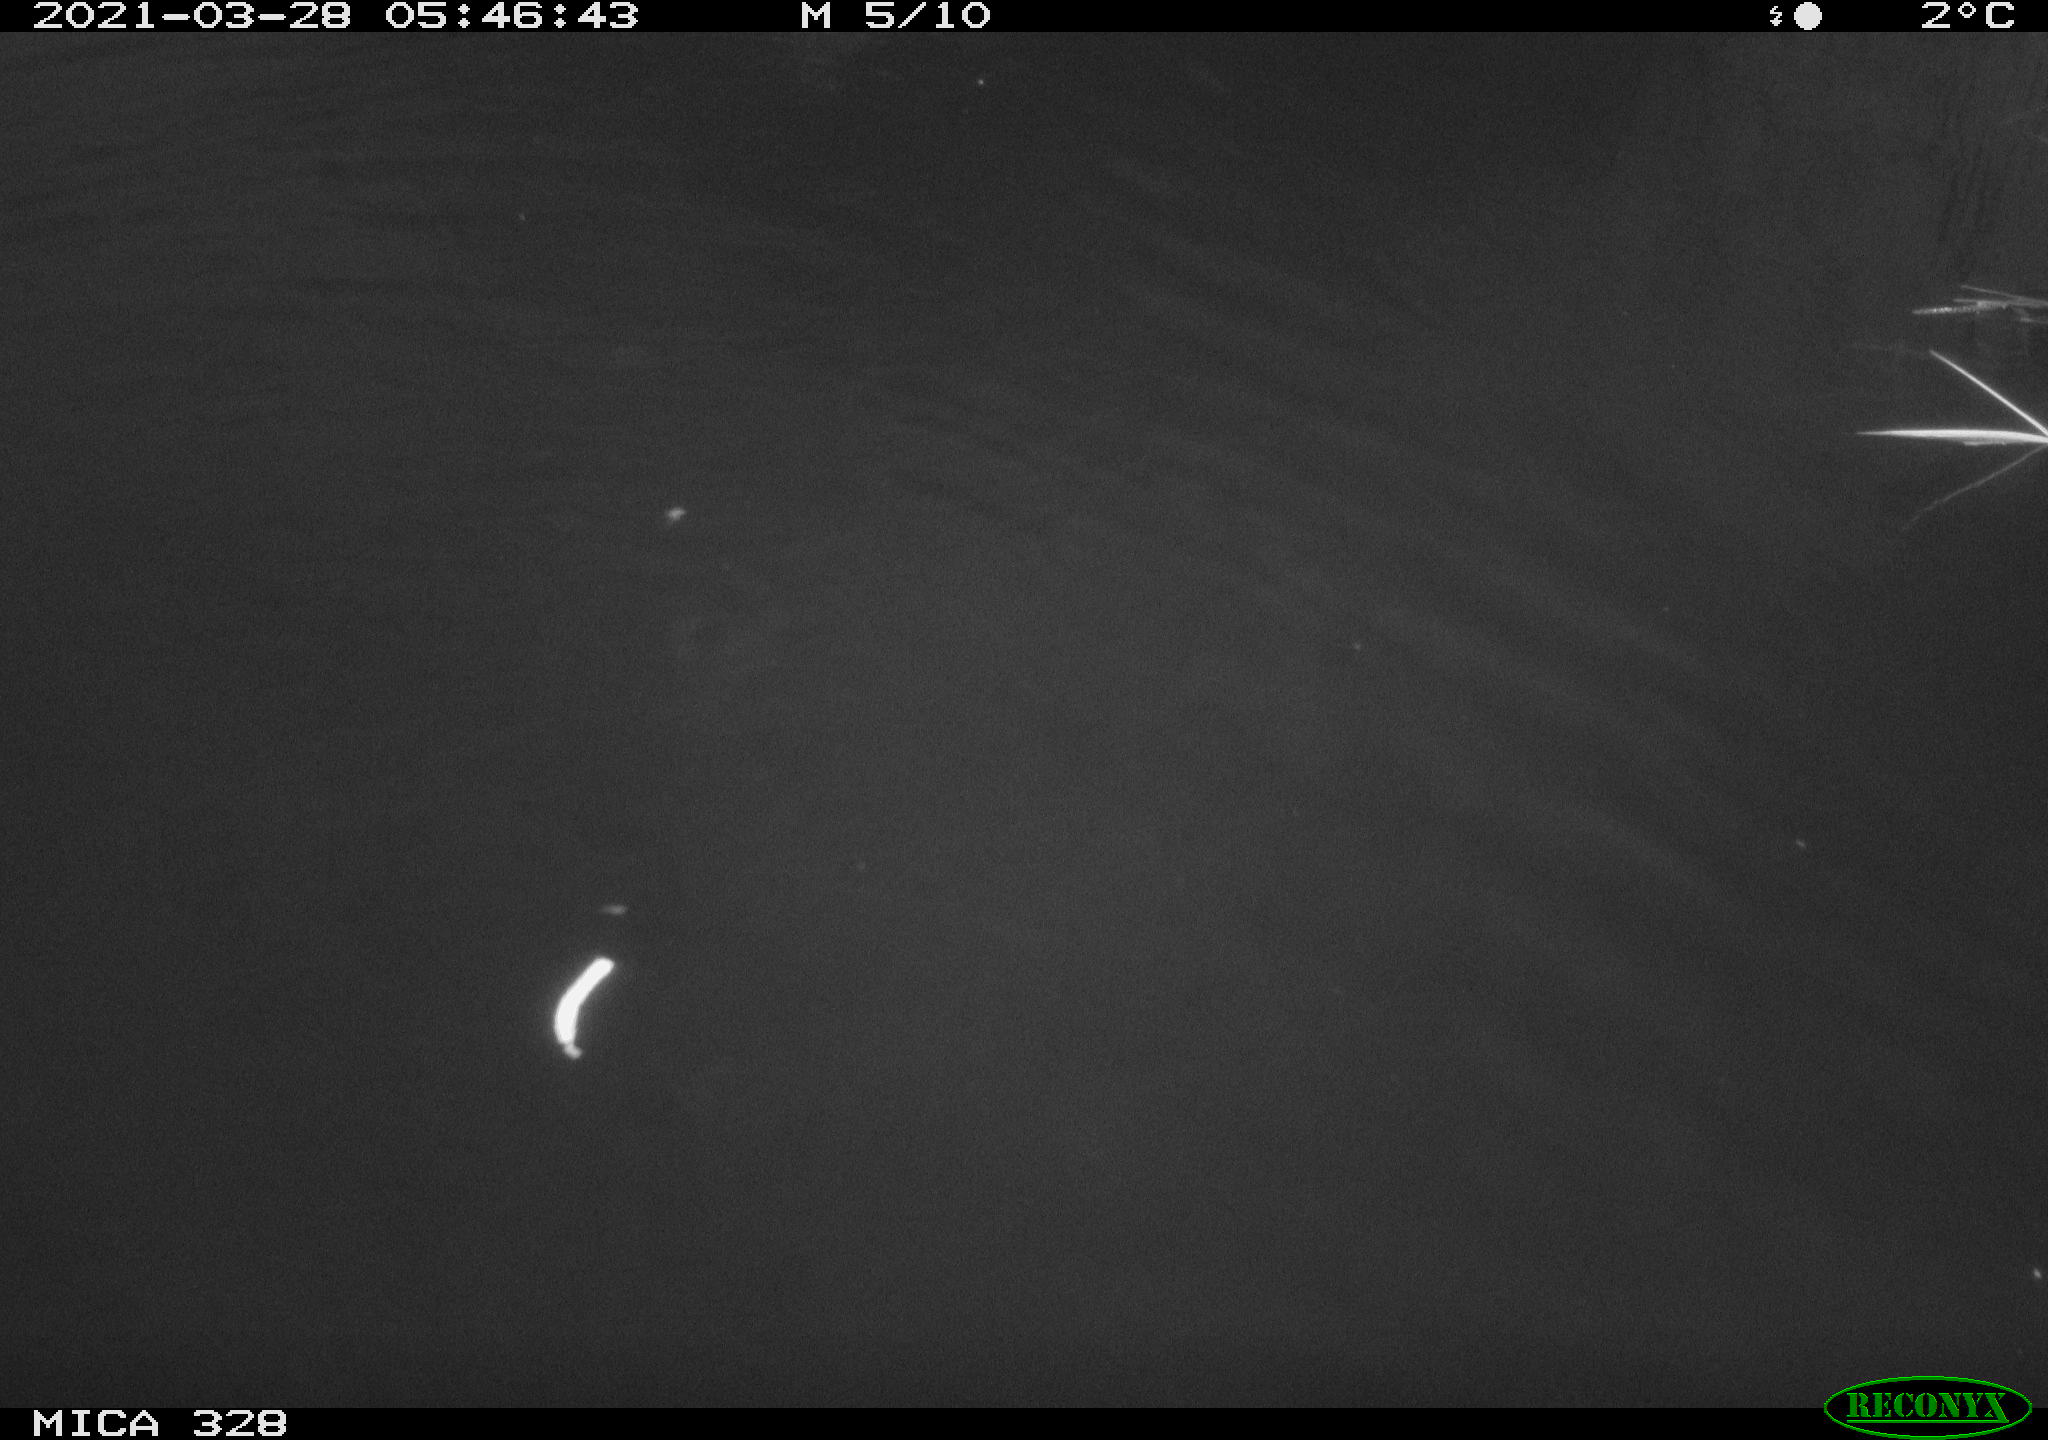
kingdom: Animalia
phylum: Chordata
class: Aves
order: Anseriformes
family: Anatidae
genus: Anas
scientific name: Anas platyrhynchos
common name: Mallard
